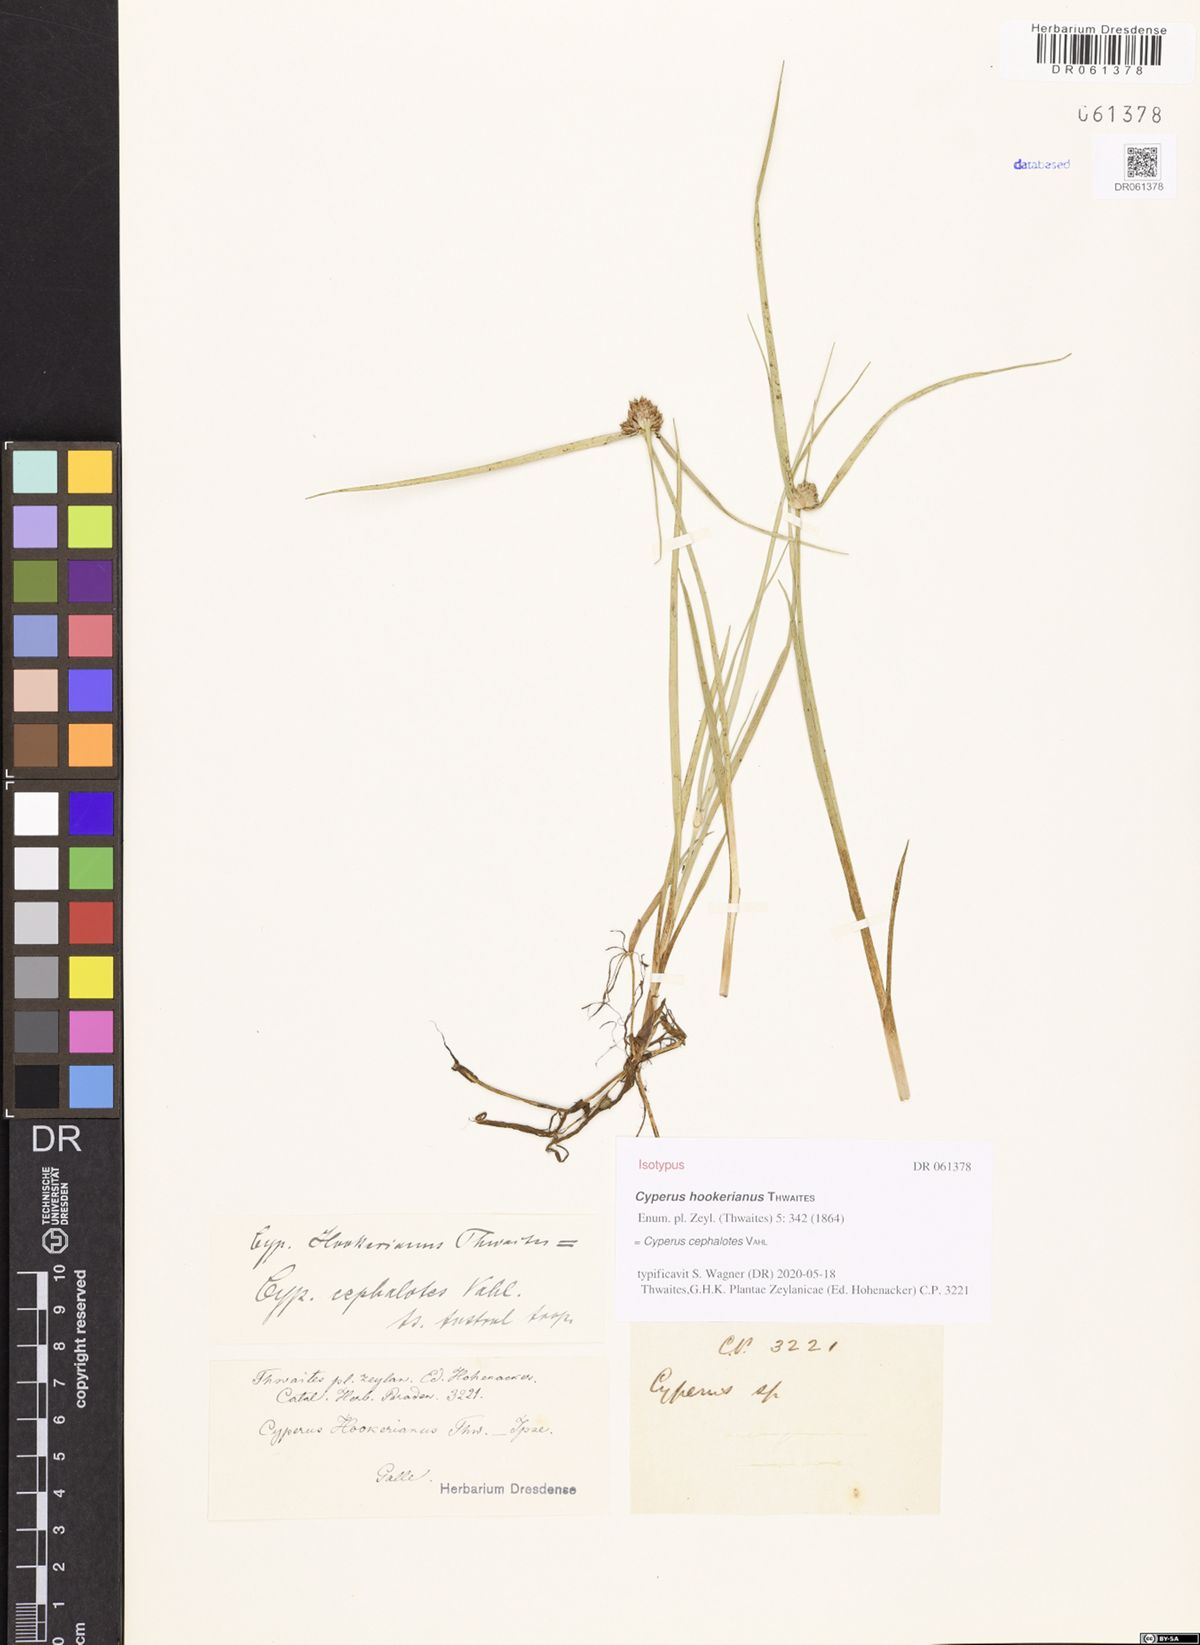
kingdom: Plantae
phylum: Tracheophyta
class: Liliopsida
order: Poales
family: Cyperaceae
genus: Cyperus
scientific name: Cyperus cephalotes
